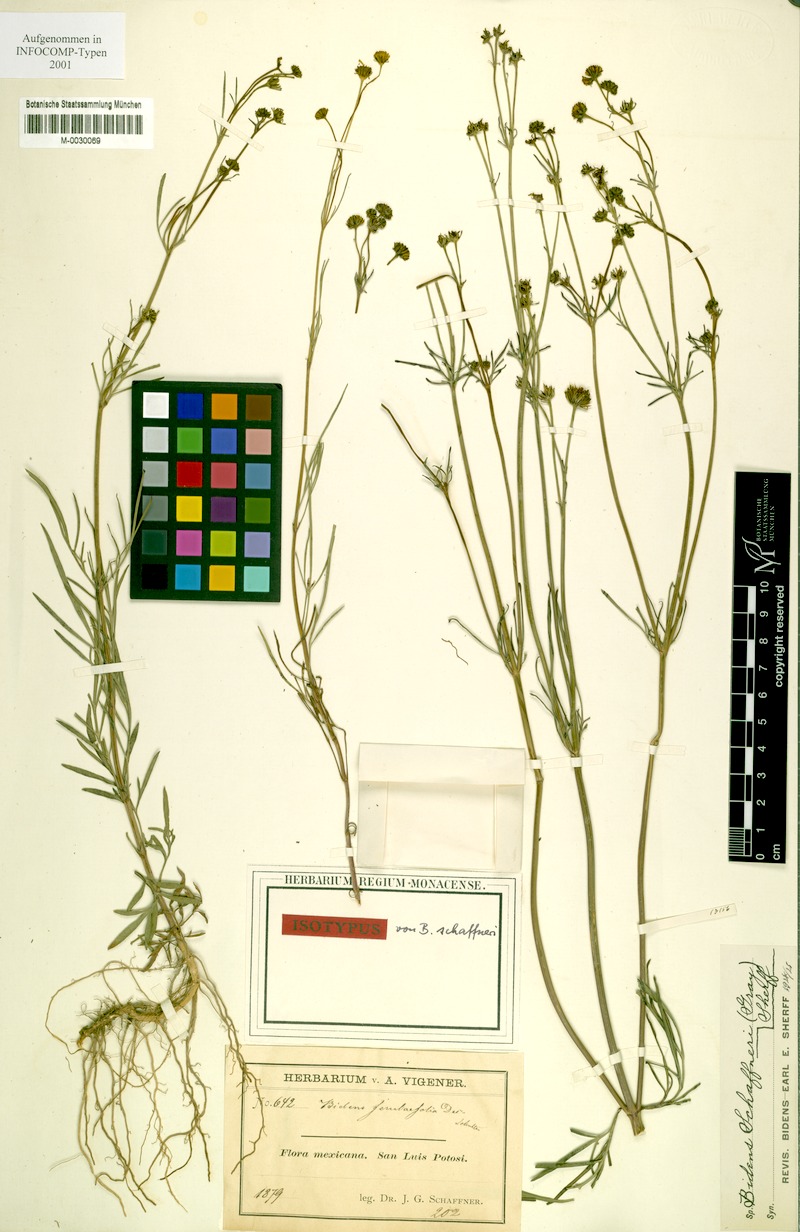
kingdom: Plantae
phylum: Tracheophyta
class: Magnoliopsida
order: Asterales
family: Asteraceae
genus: Bidens
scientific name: Bidens schaffneri
